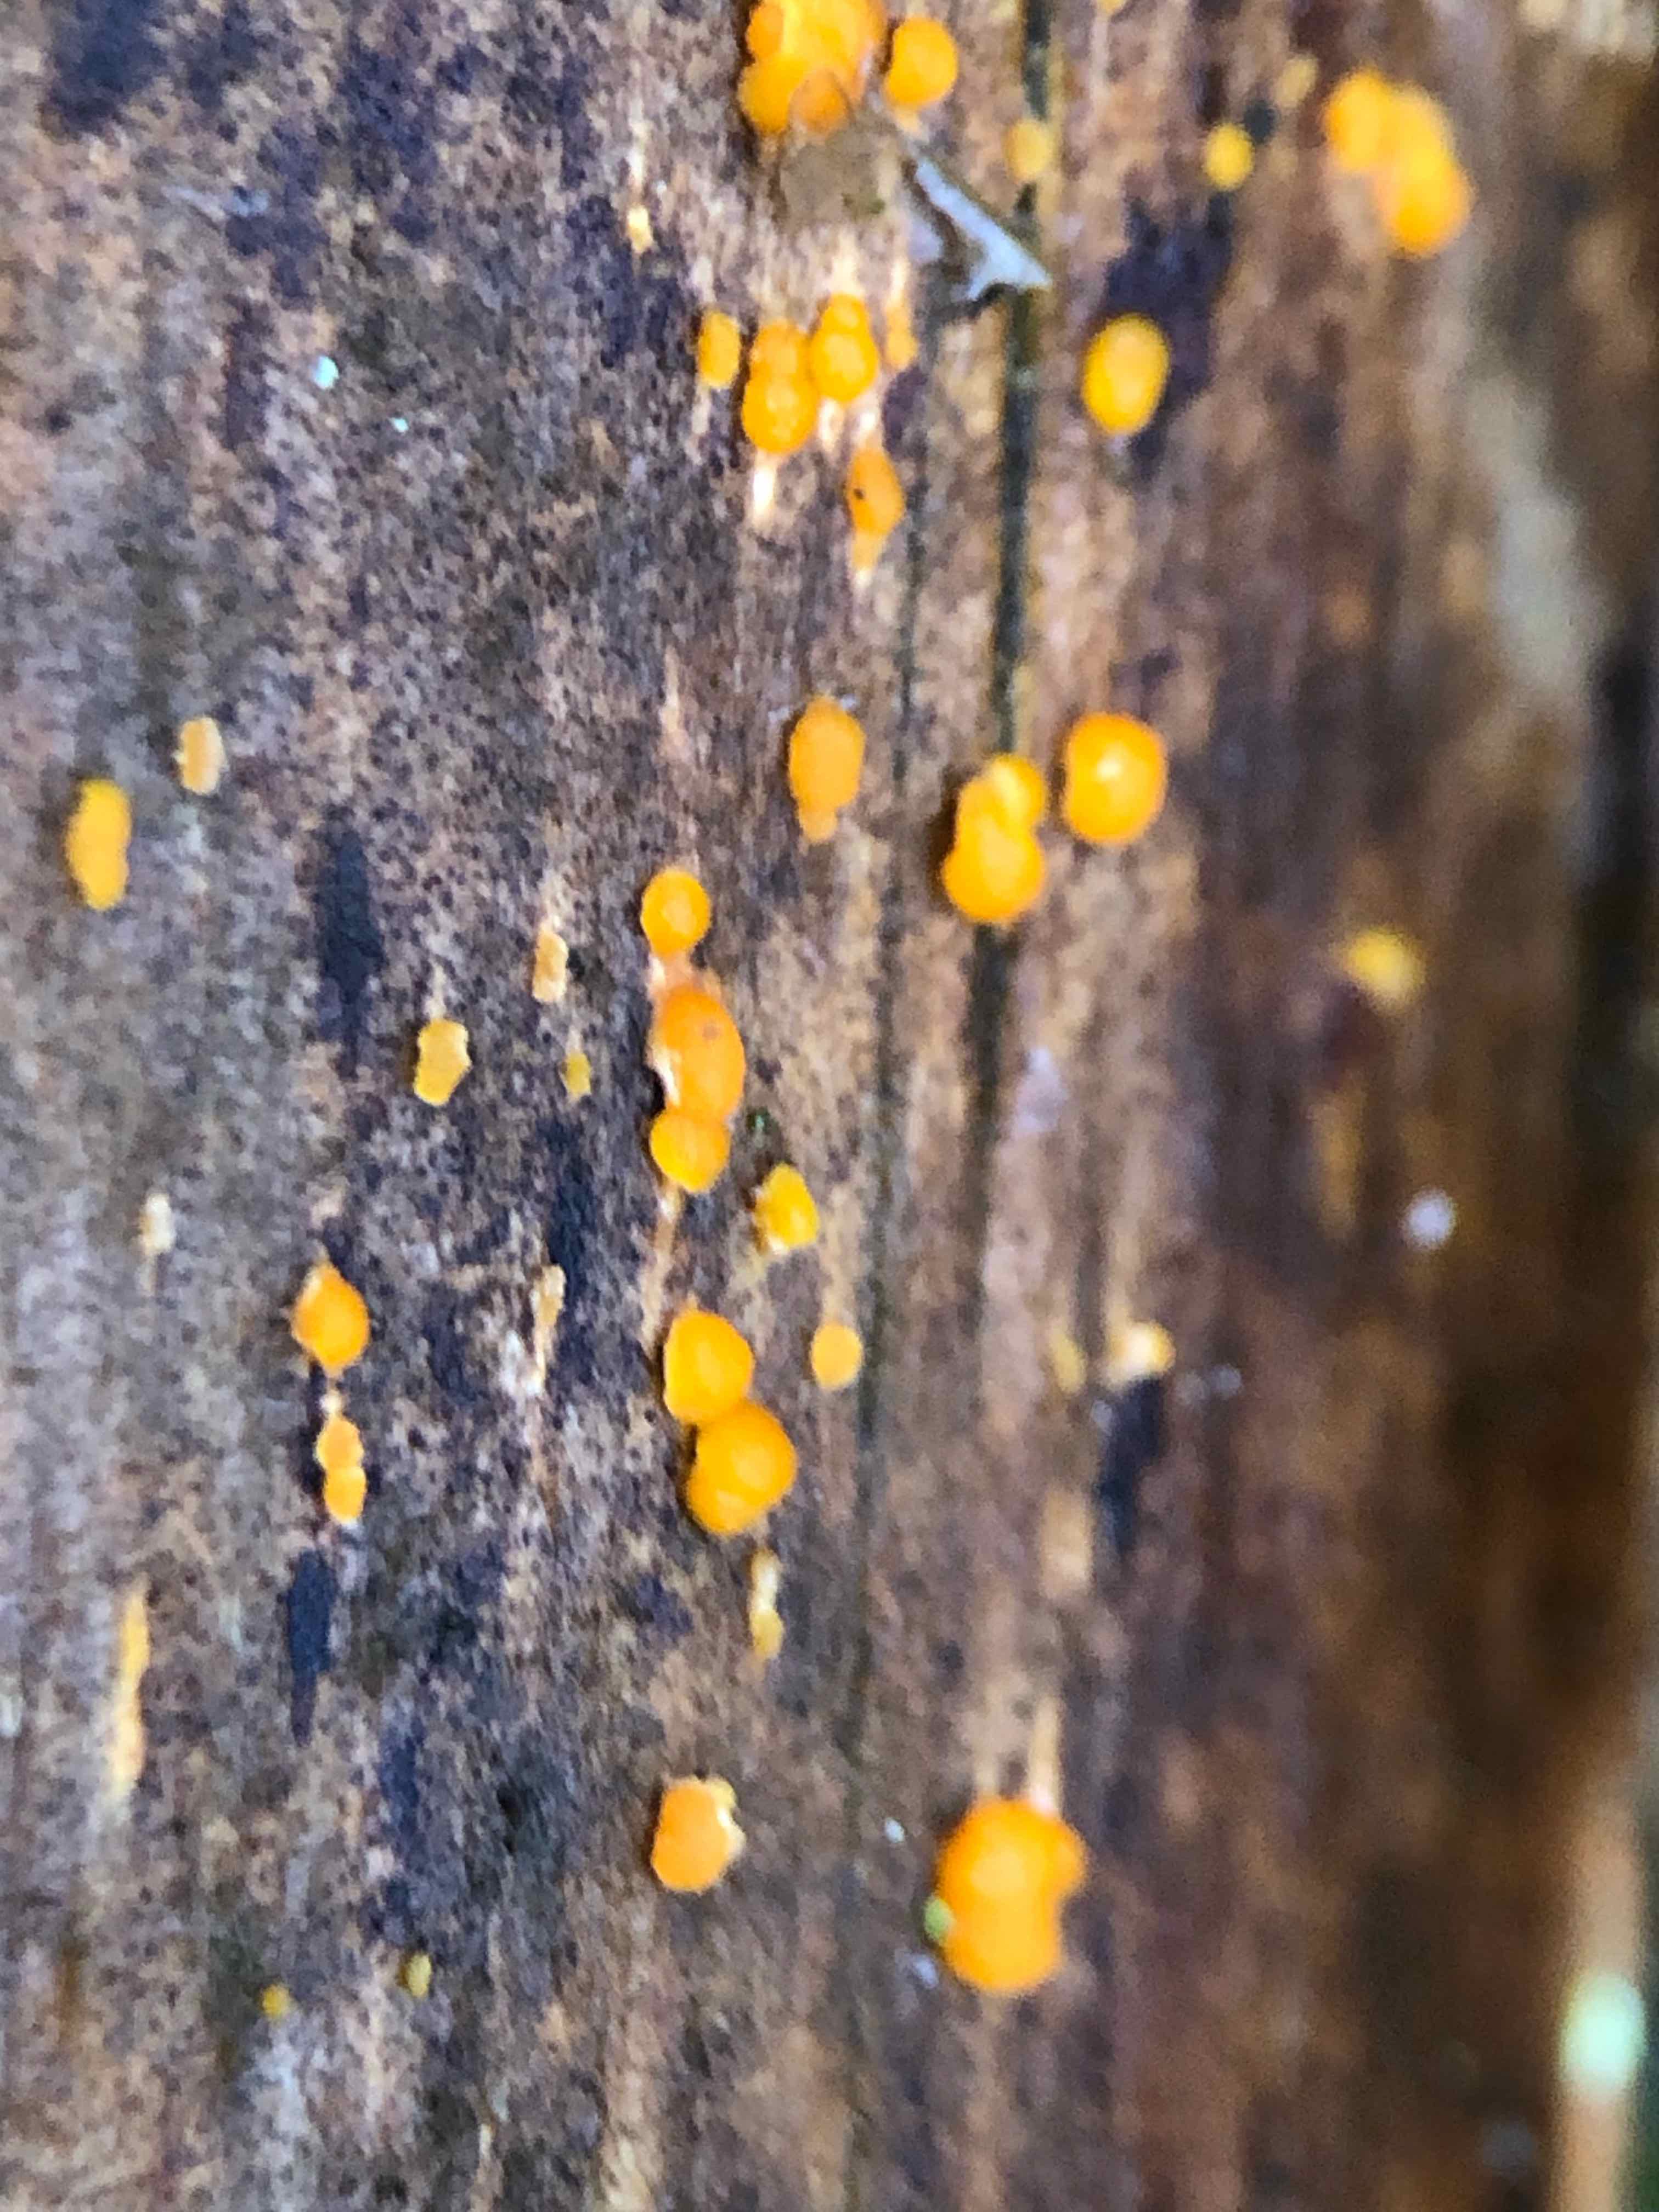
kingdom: Fungi
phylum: Basidiomycota
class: Dacrymycetes
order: Dacrymycetales
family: Dacrymycetaceae
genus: Dacrymyces
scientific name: Dacrymyces stillatus
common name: almindelig tåresvamp
